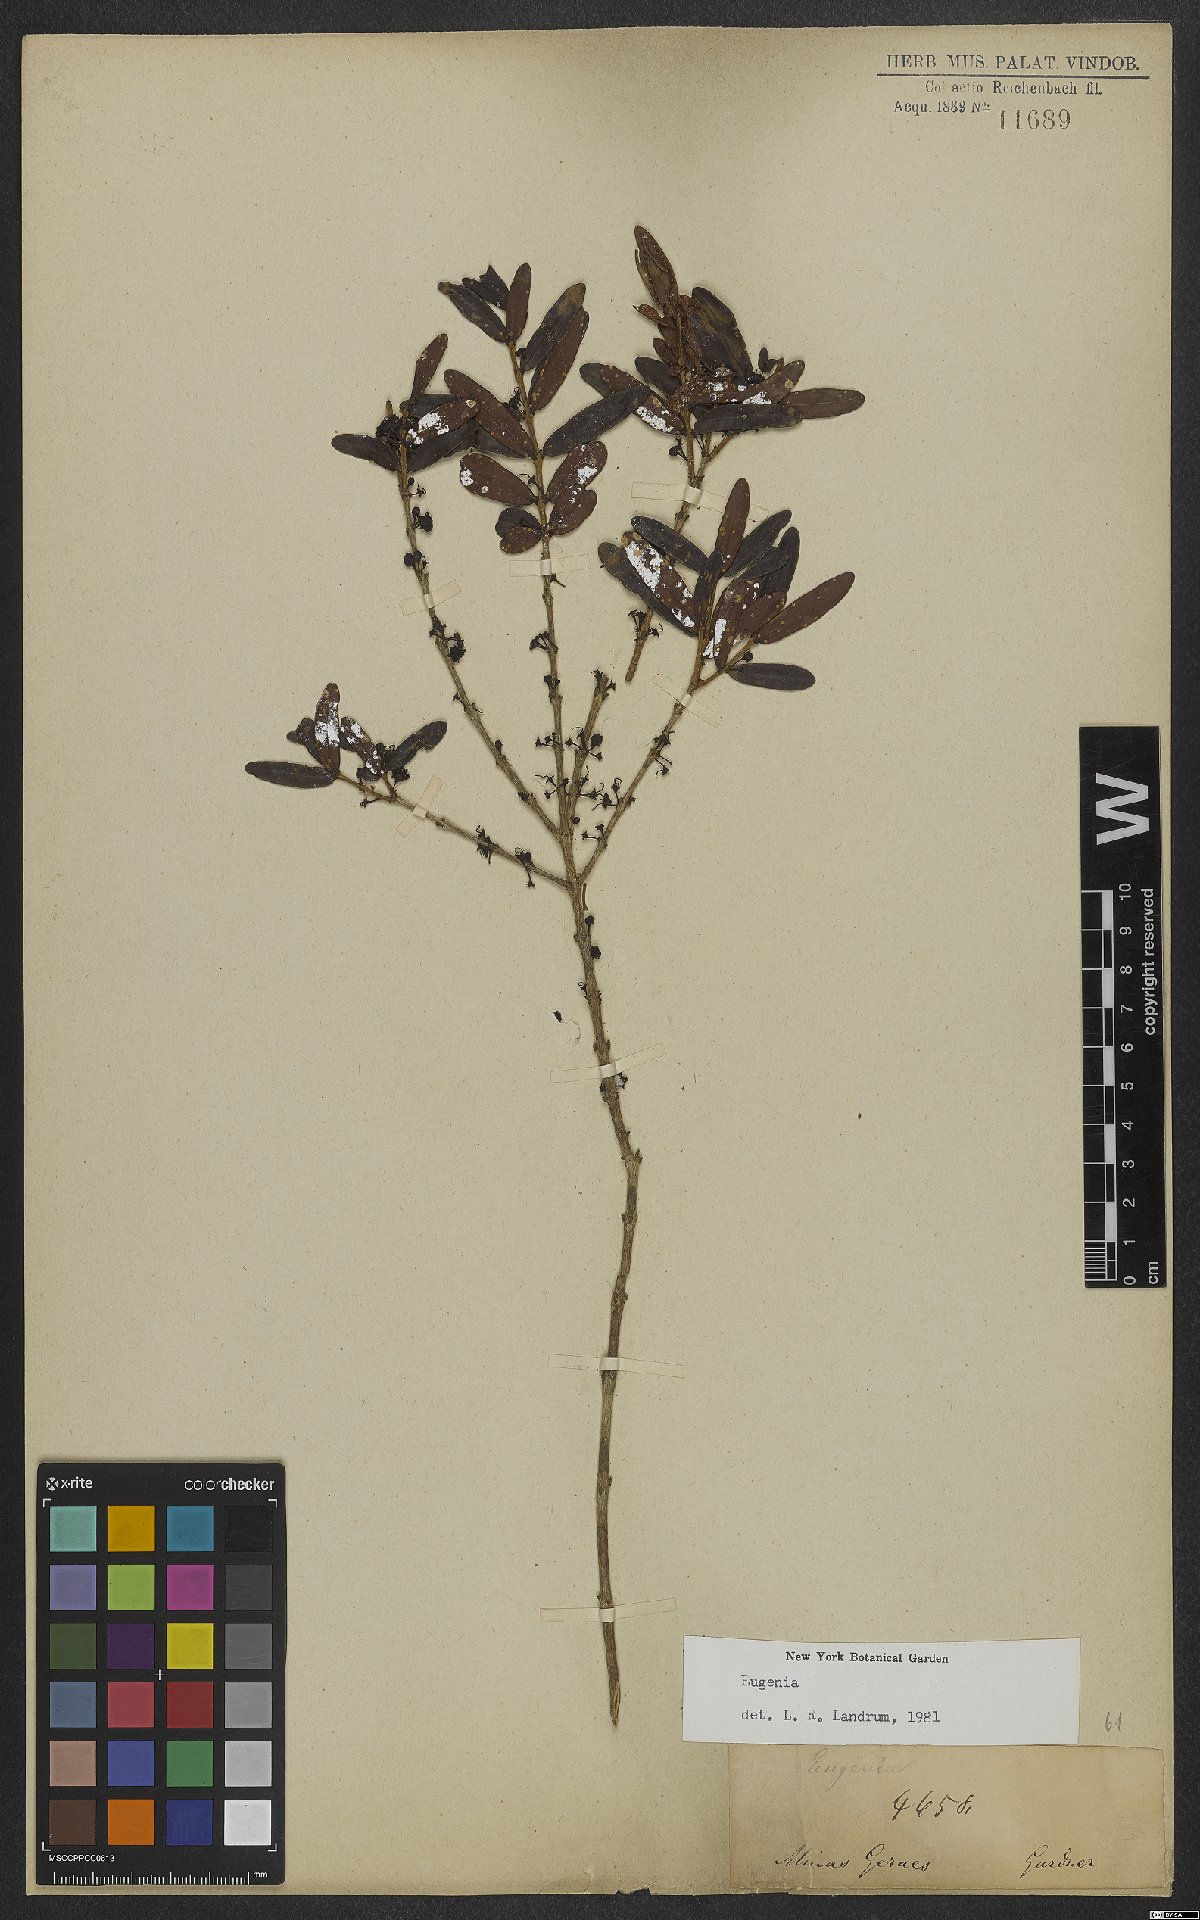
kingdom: Plantae
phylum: Tracheophyta
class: Magnoliopsida
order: Myrtales
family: Myrtaceae
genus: Eugenia
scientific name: Eugenia
